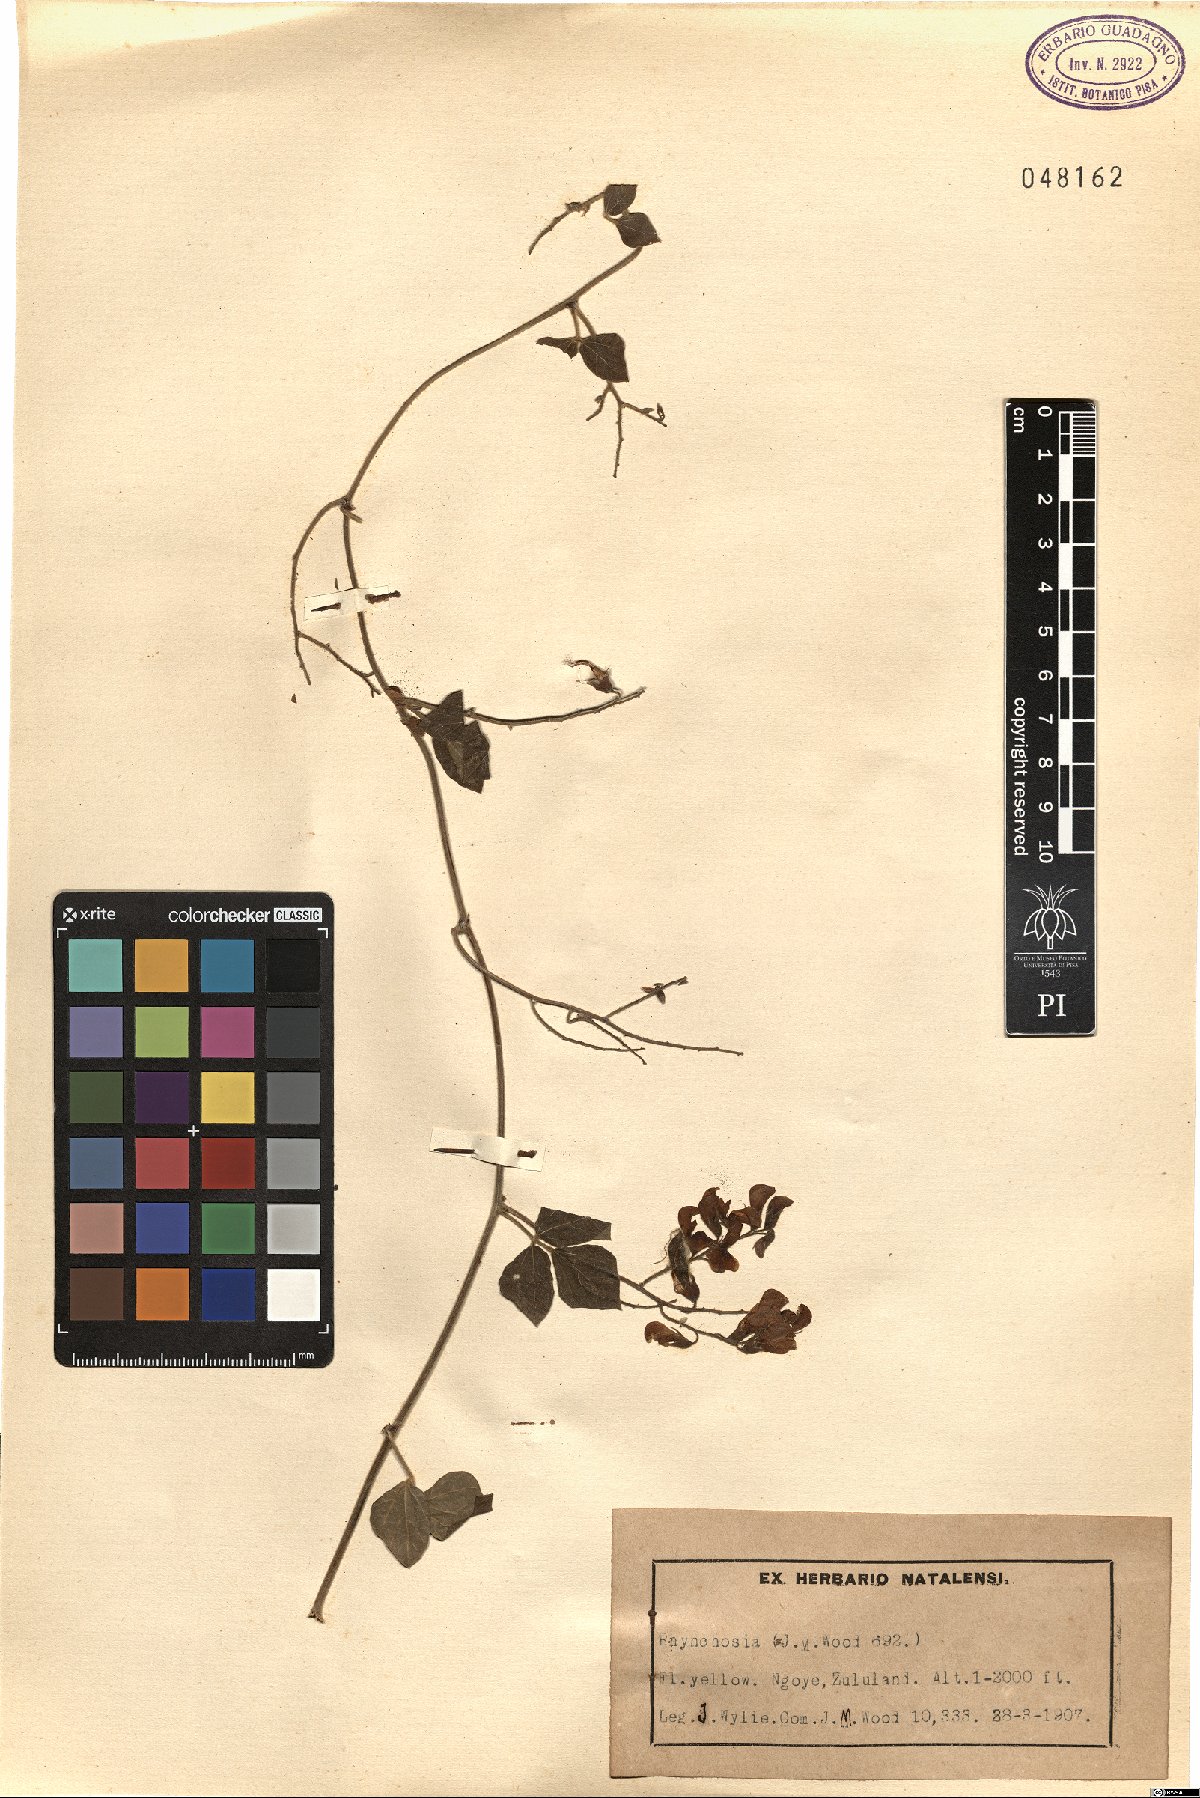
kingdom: Plantae
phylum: Tracheophyta
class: Magnoliopsida
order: Fabales
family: Fabaceae
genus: Rhynchosia
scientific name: Rhynchosia
